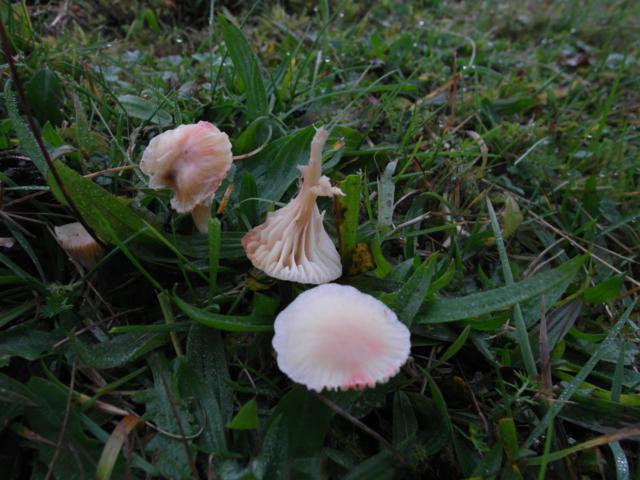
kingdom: Fungi
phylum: Basidiomycota
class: Agaricomycetes
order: Agaricales
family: Hygrophoraceae
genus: Cuphophyllus
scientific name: Cuphophyllus virgineus
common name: snehvid vokshat
